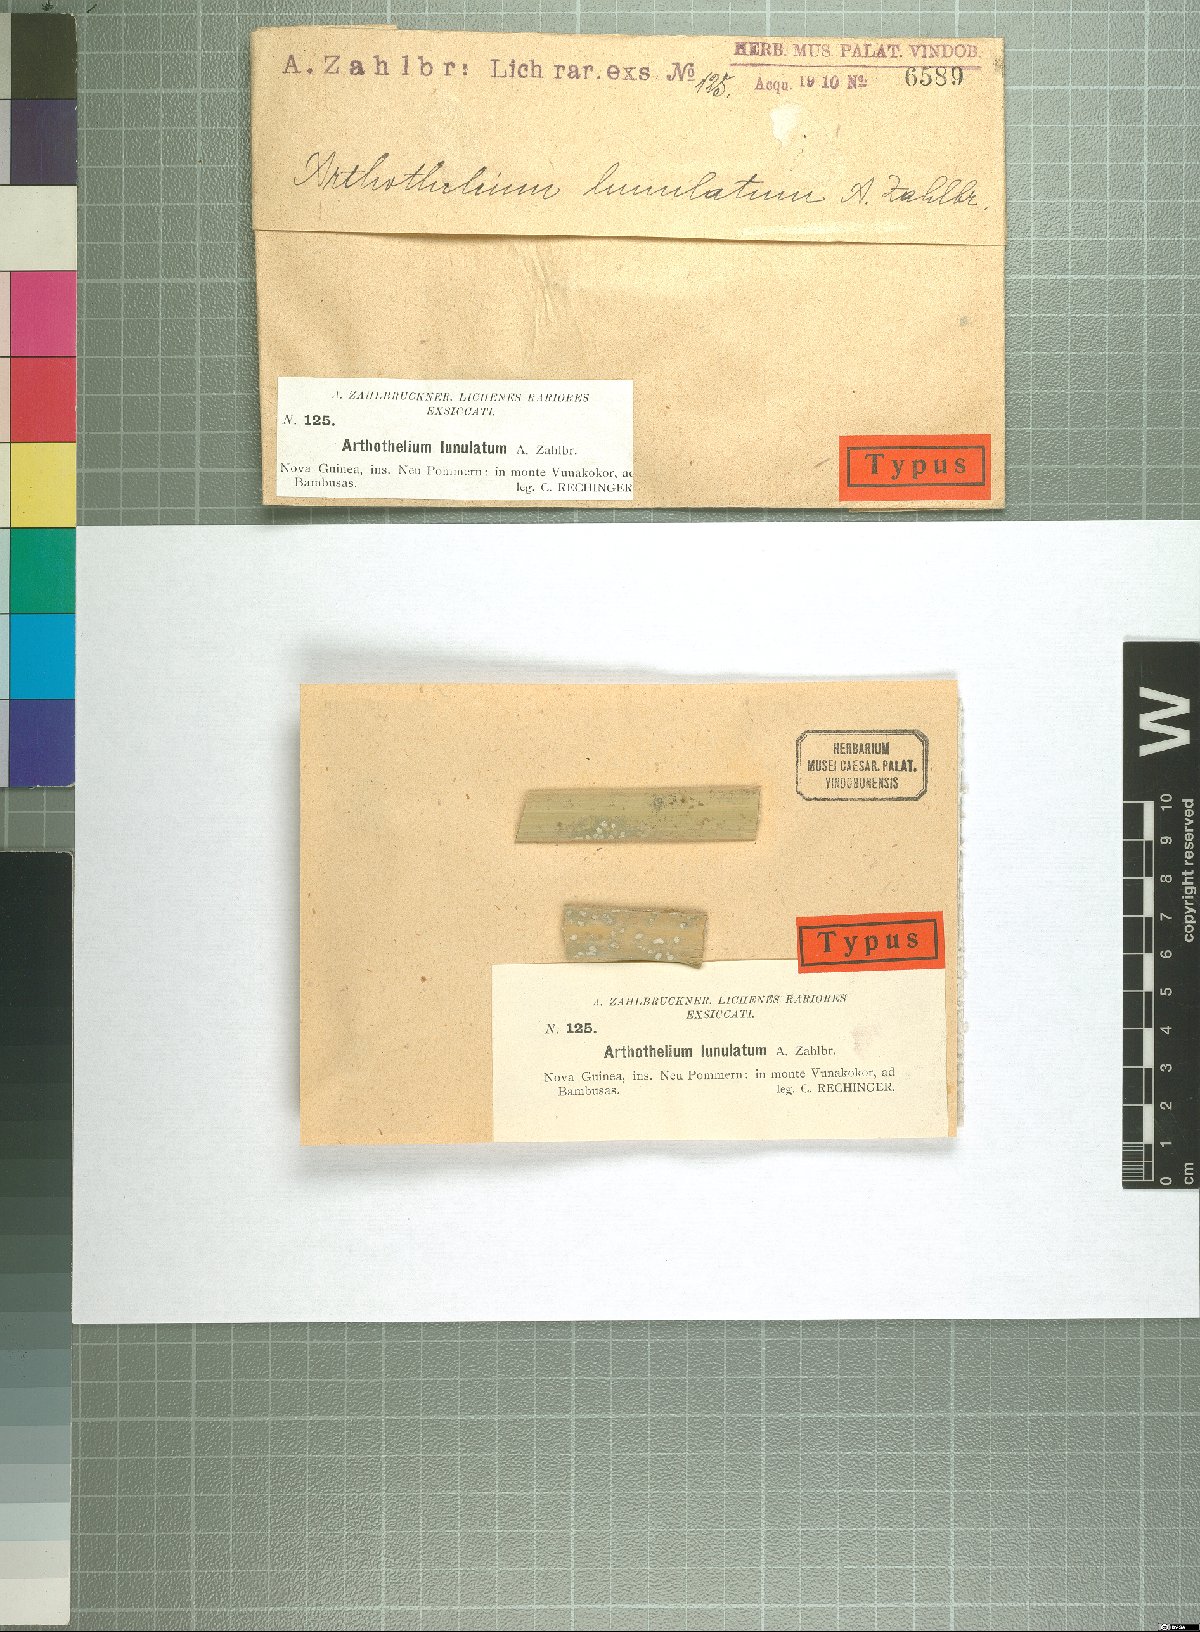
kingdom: Fungi
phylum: Ascomycota
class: Arthoniomycetes
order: Arthoniales
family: Arthoniaceae
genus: Arthothelium
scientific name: Arthothelium
